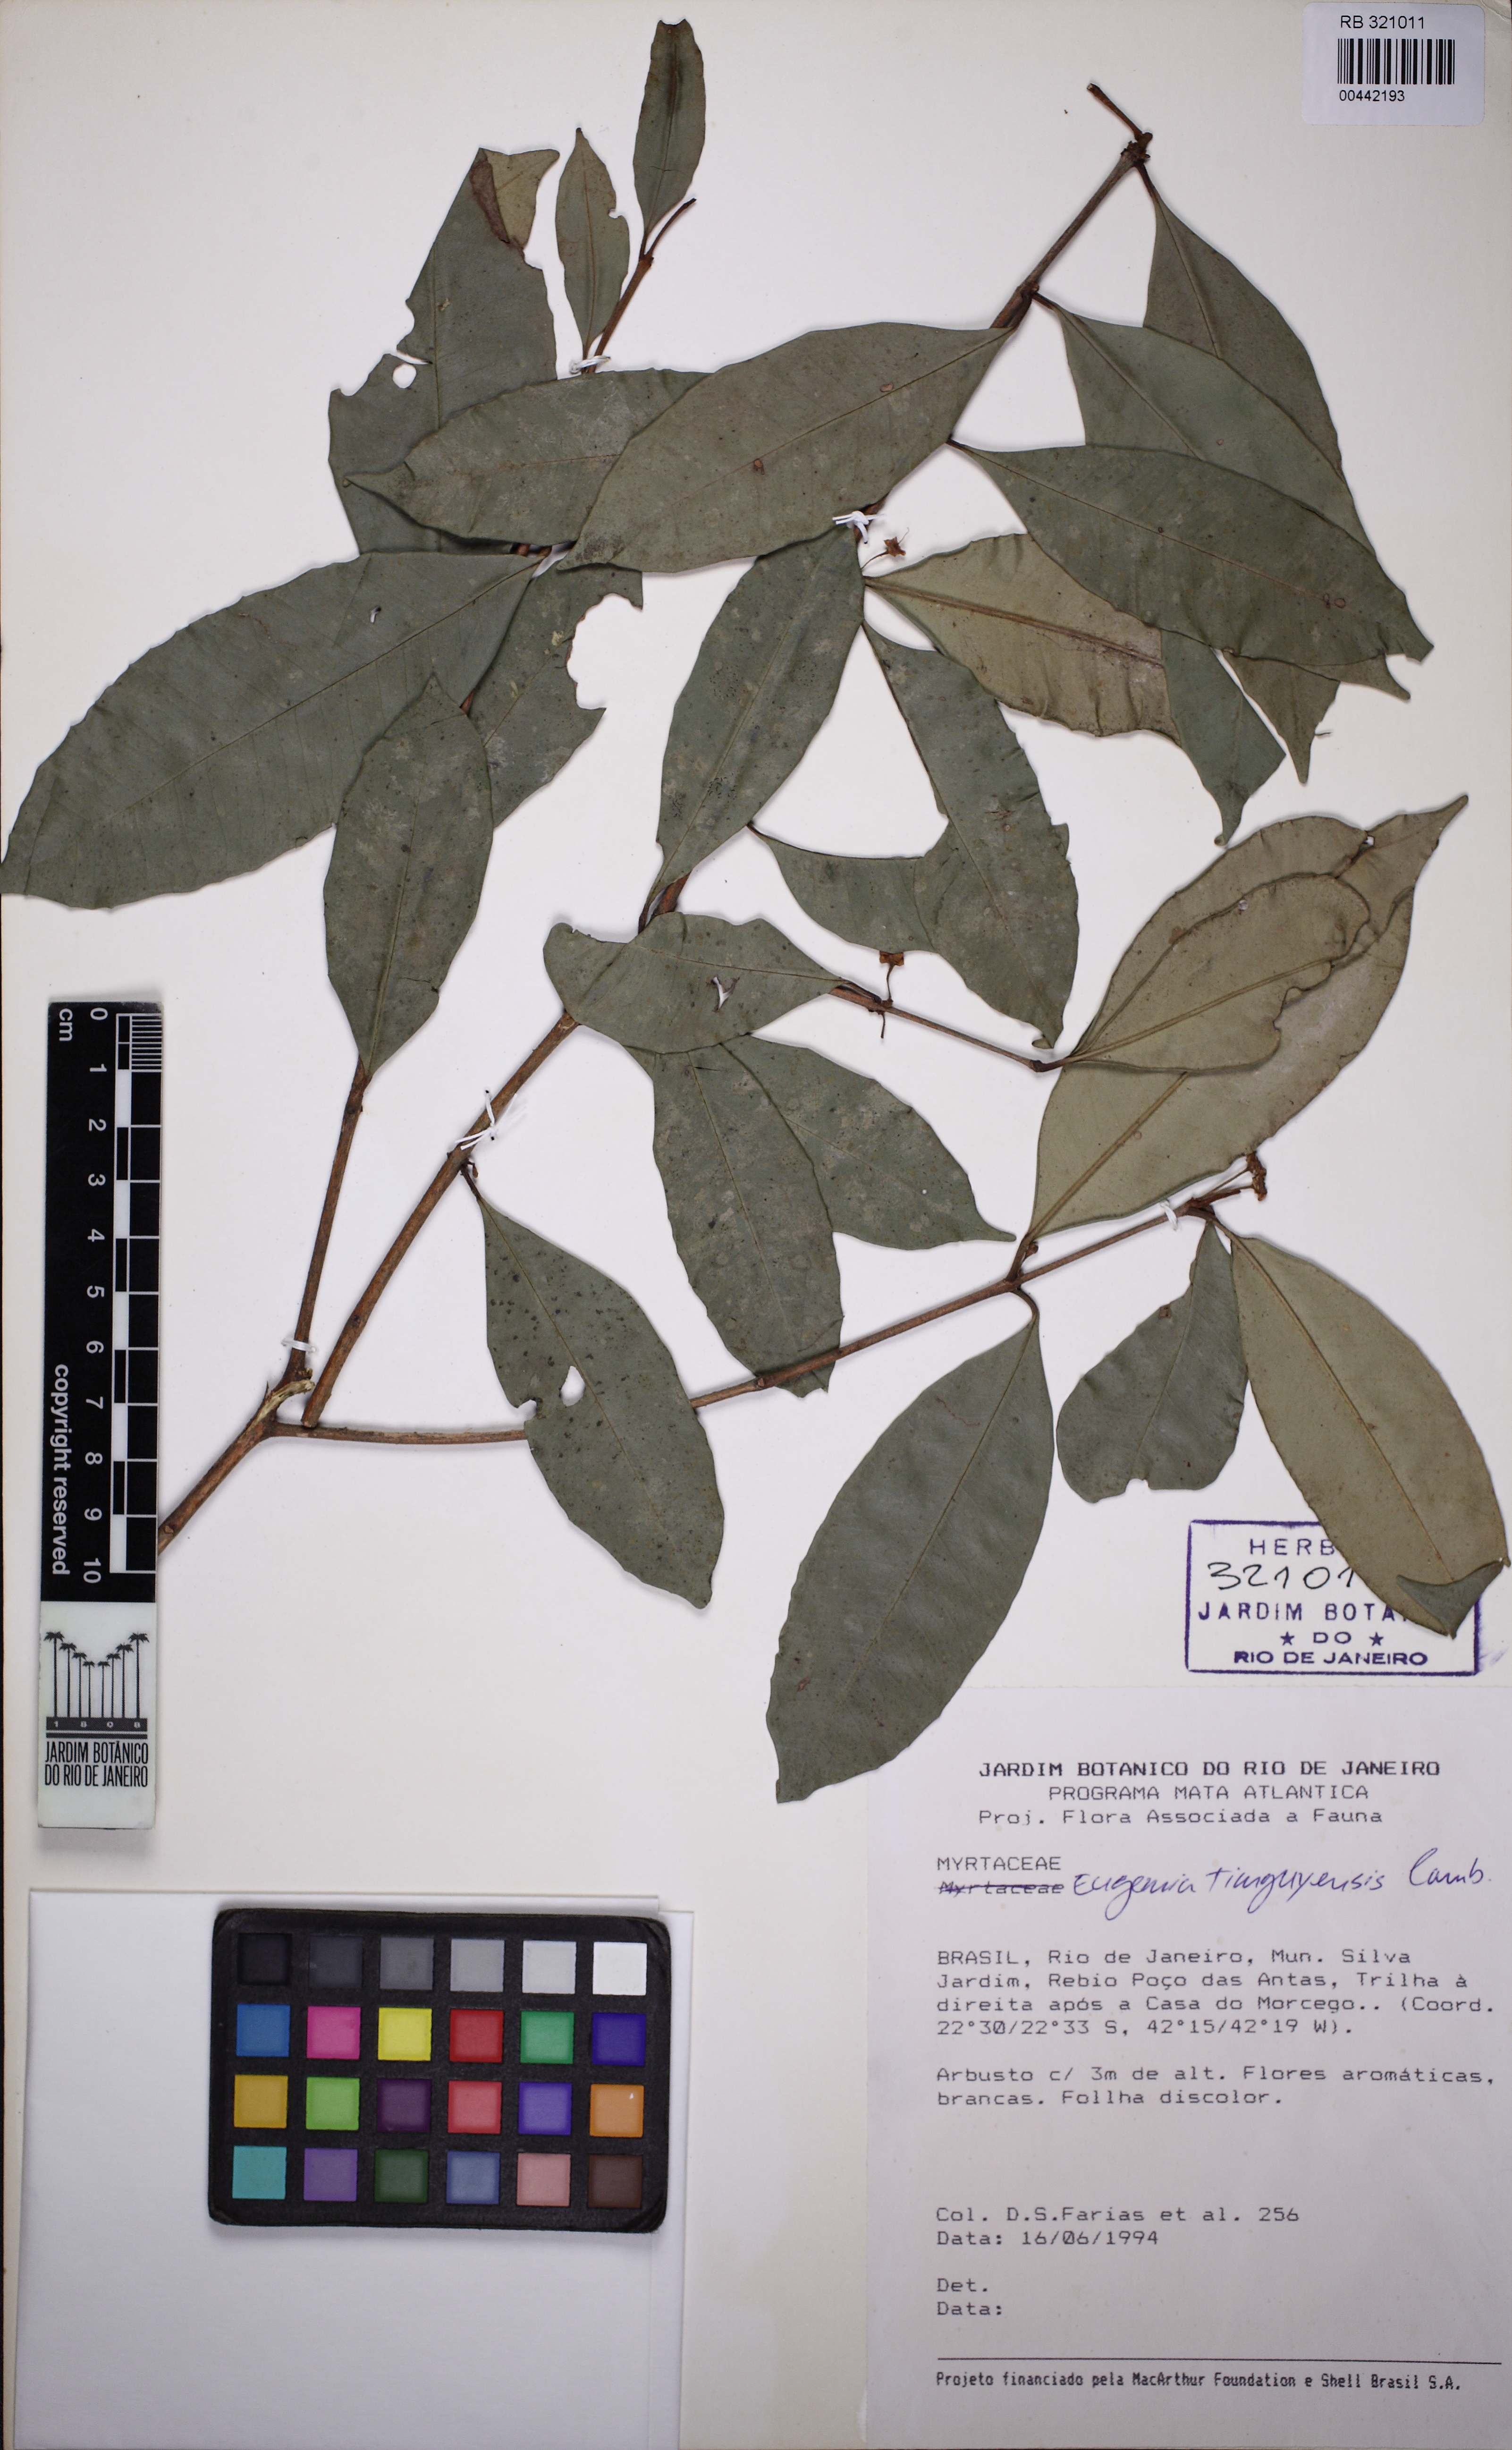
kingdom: Plantae
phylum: Tracheophyta
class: Magnoliopsida
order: Myrtales
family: Myrtaceae
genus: Eugenia
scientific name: Eugenia pisiformis
